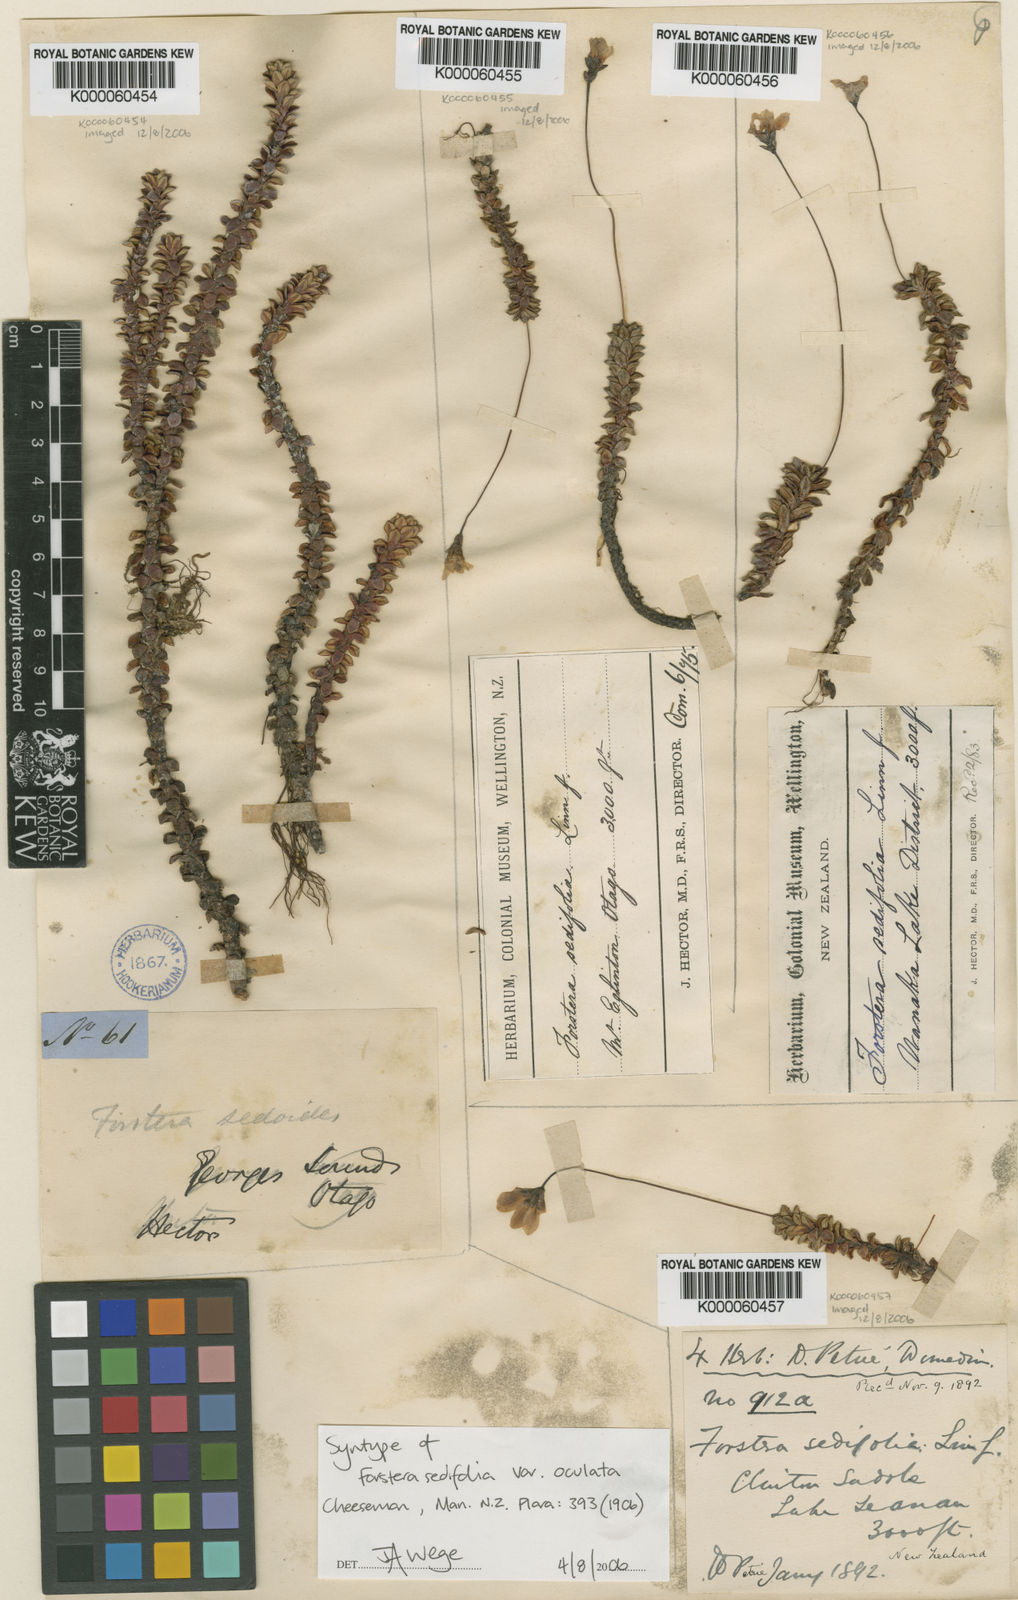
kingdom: Plantae
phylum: Tracheophyta
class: Magnoliopsida
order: Asterales
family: Stylidiaceae
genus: Forstera
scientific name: Forstera
